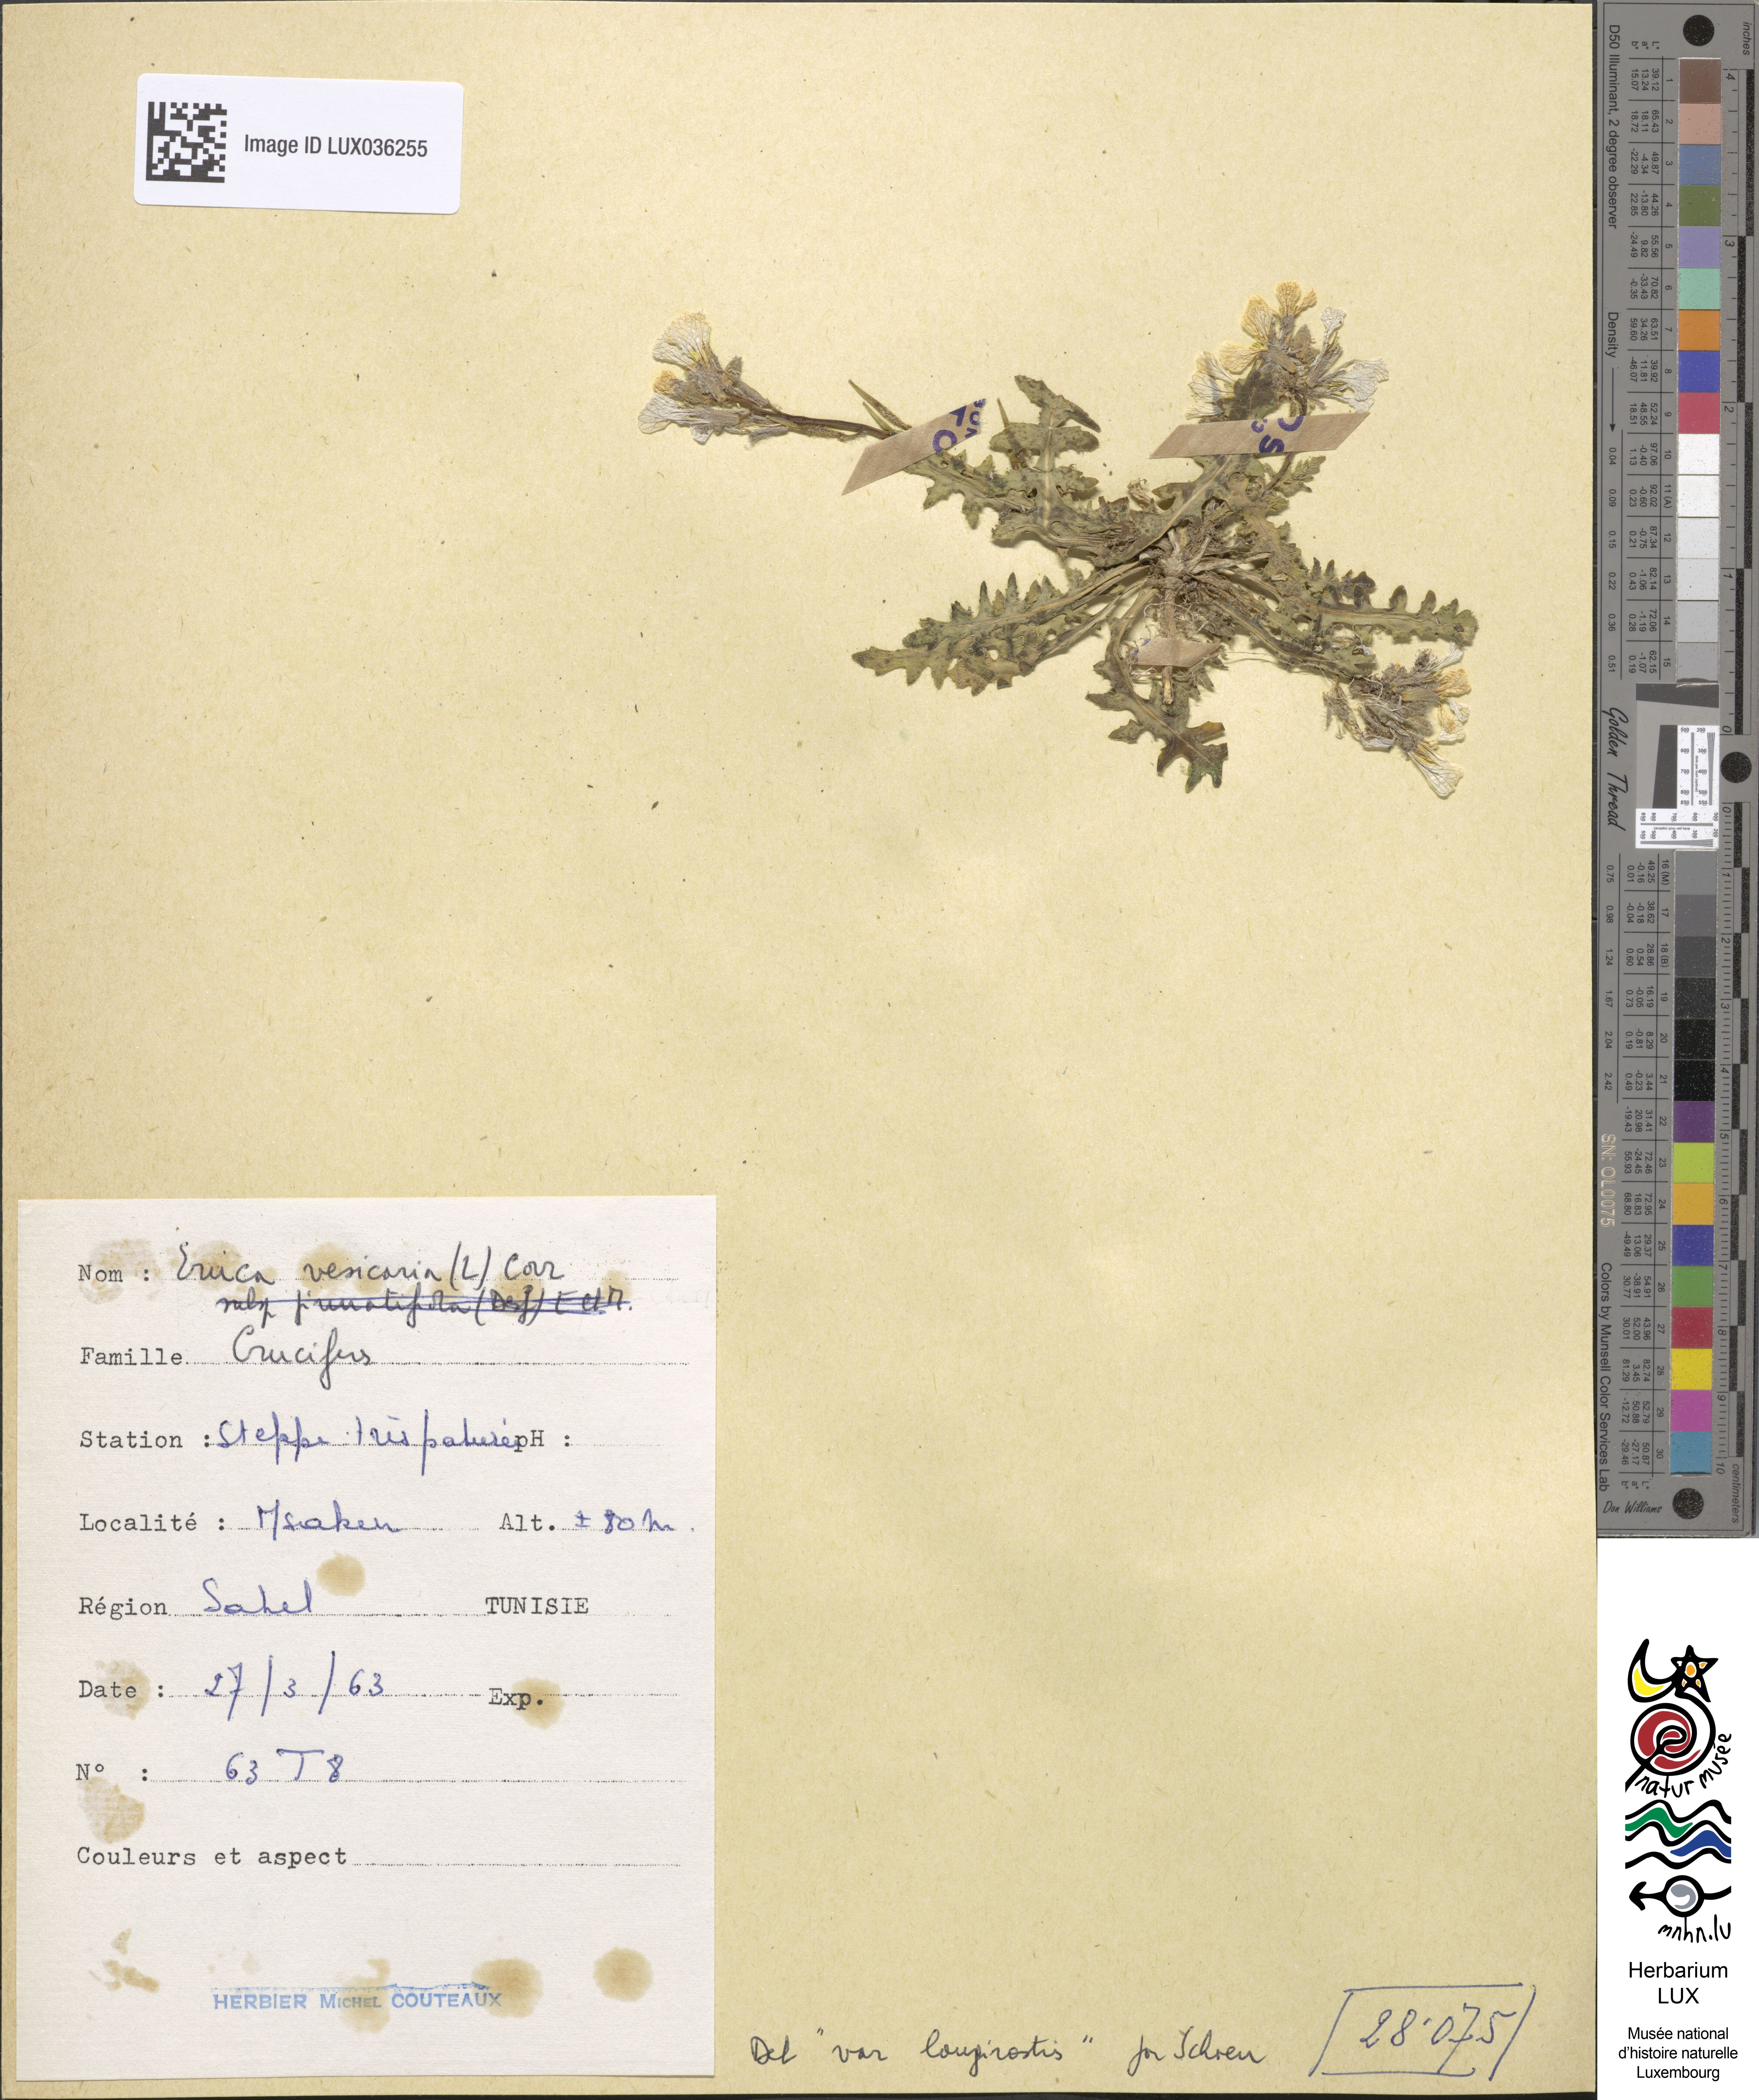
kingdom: Plantae
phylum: Tracheophyta
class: Magnoliopsida
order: Brassicales
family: Brassicaceae
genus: Eruca
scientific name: Eruca vesicaria
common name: Garden rocket
